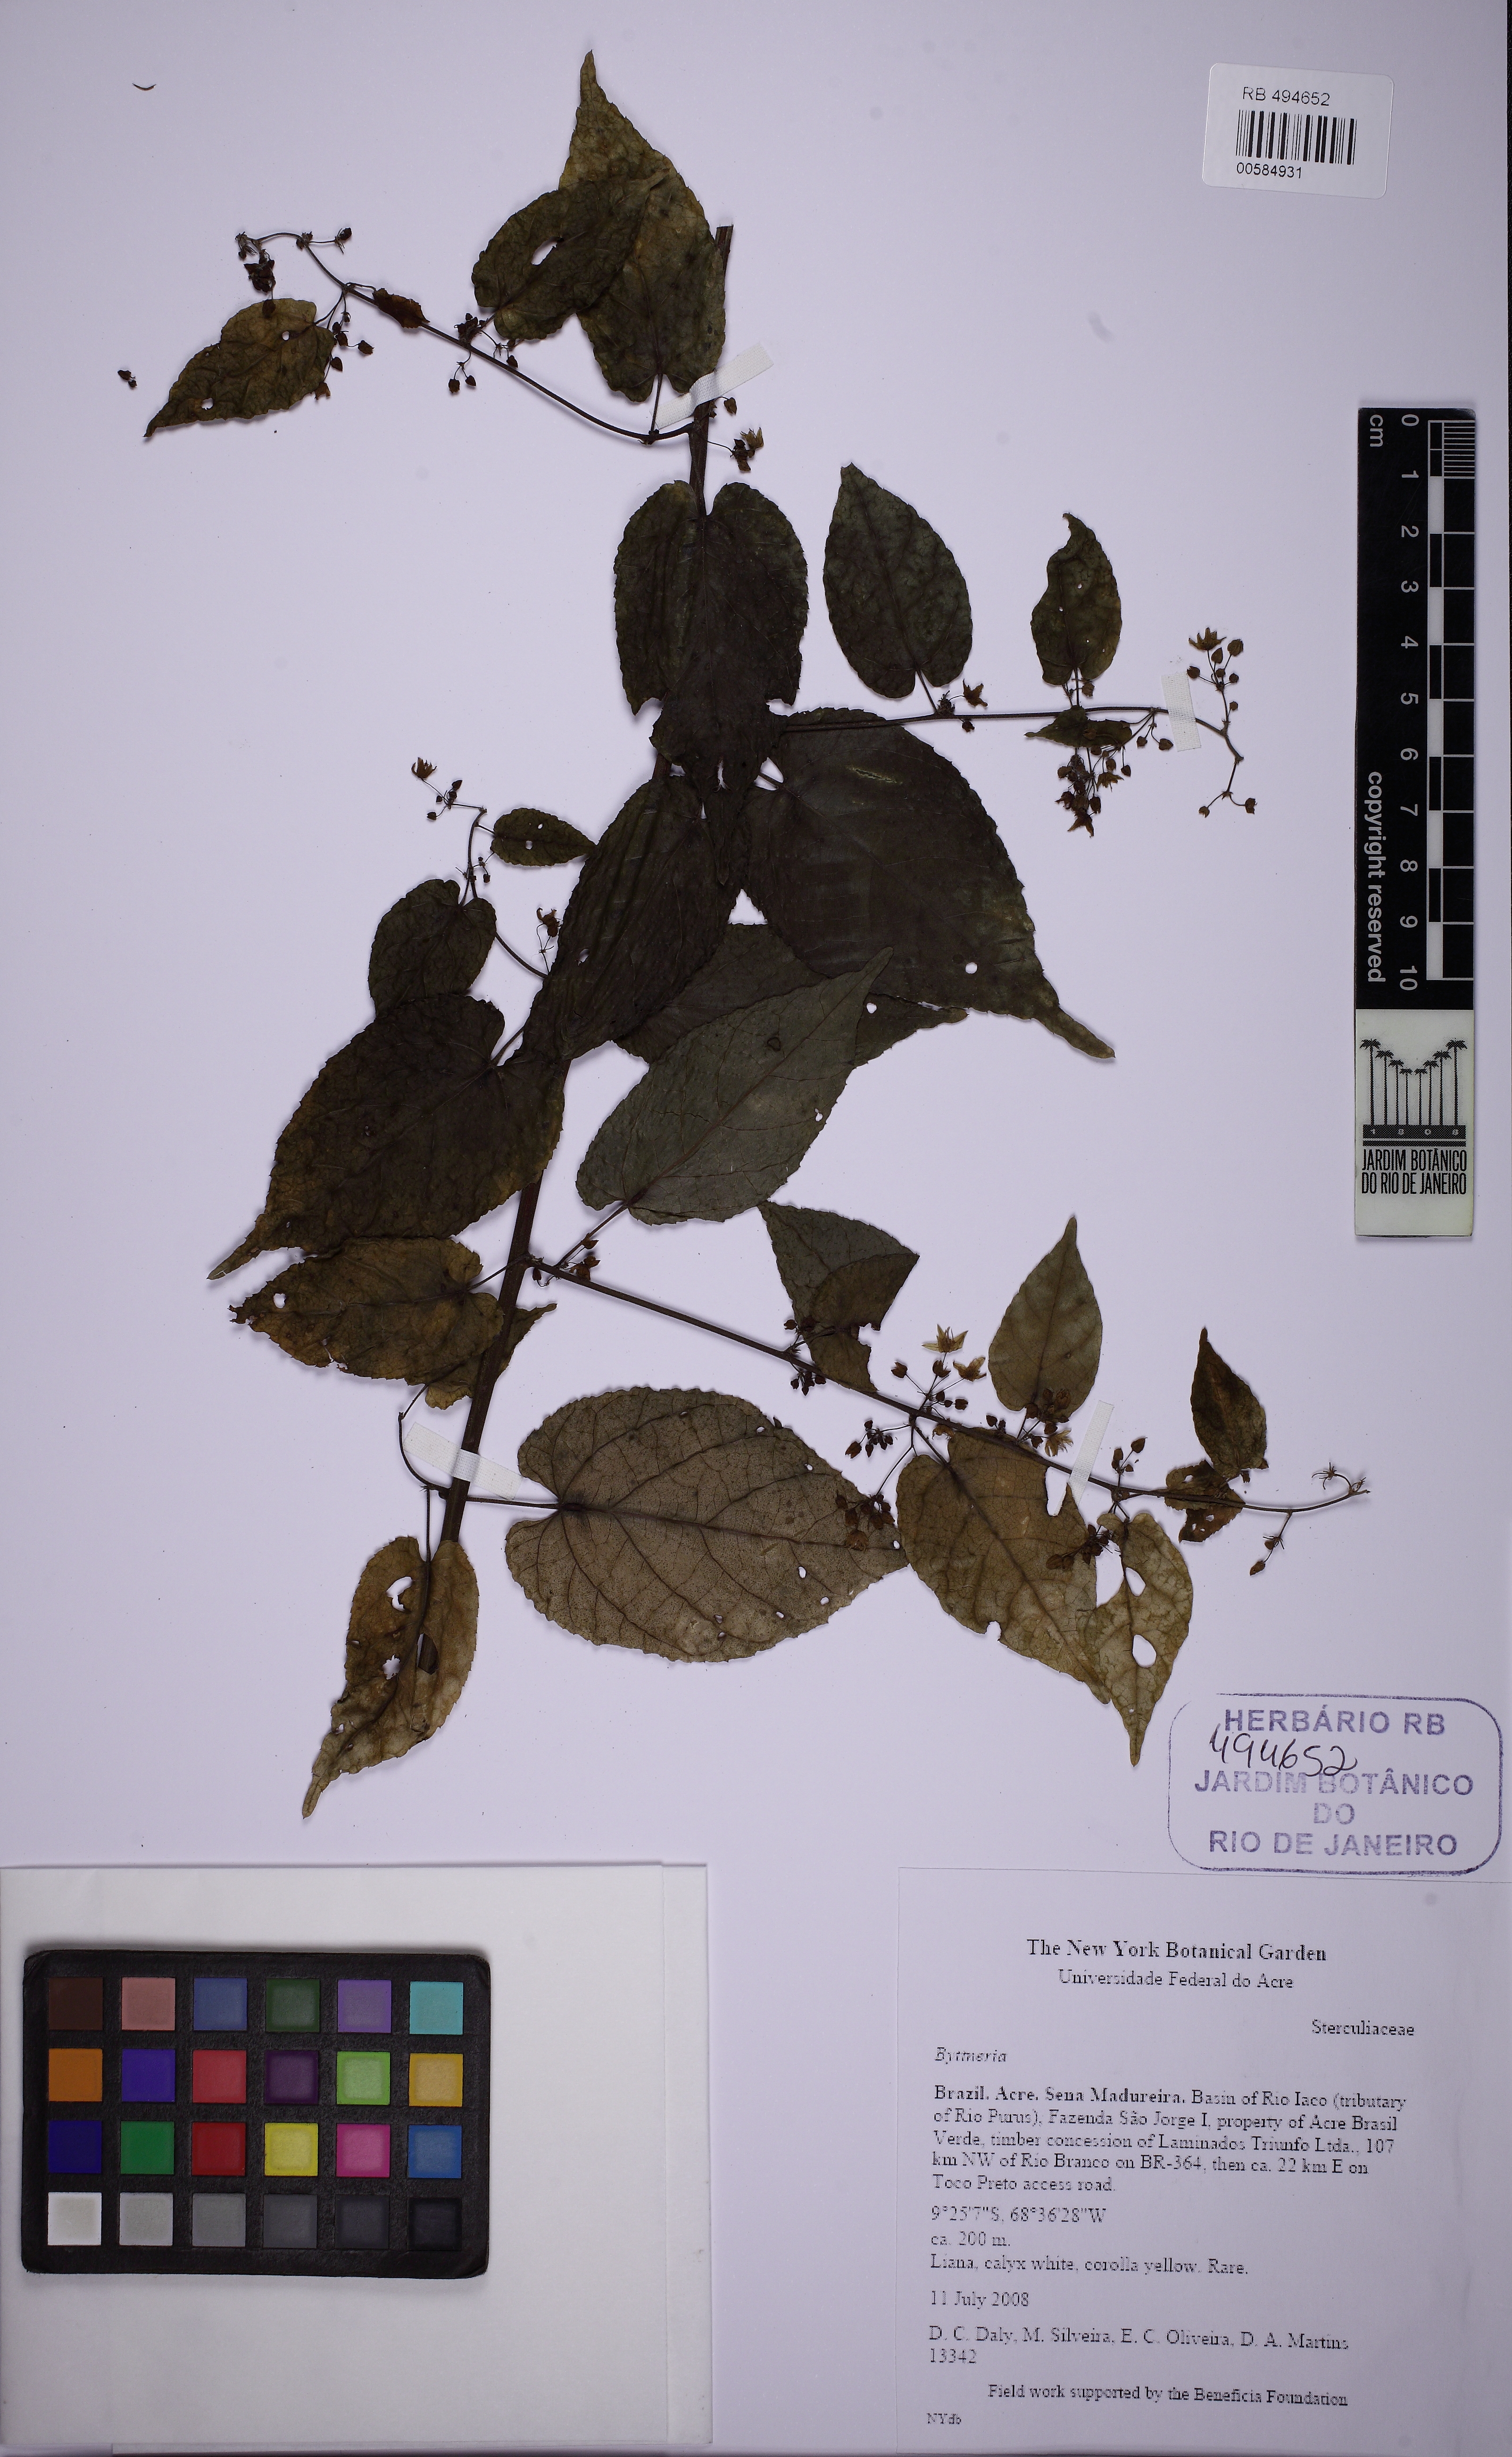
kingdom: Plantae
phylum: Tracheophyta
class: Magnoliopsida
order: Malvales
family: Malvaceae
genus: Byttneria
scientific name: Byttneria
